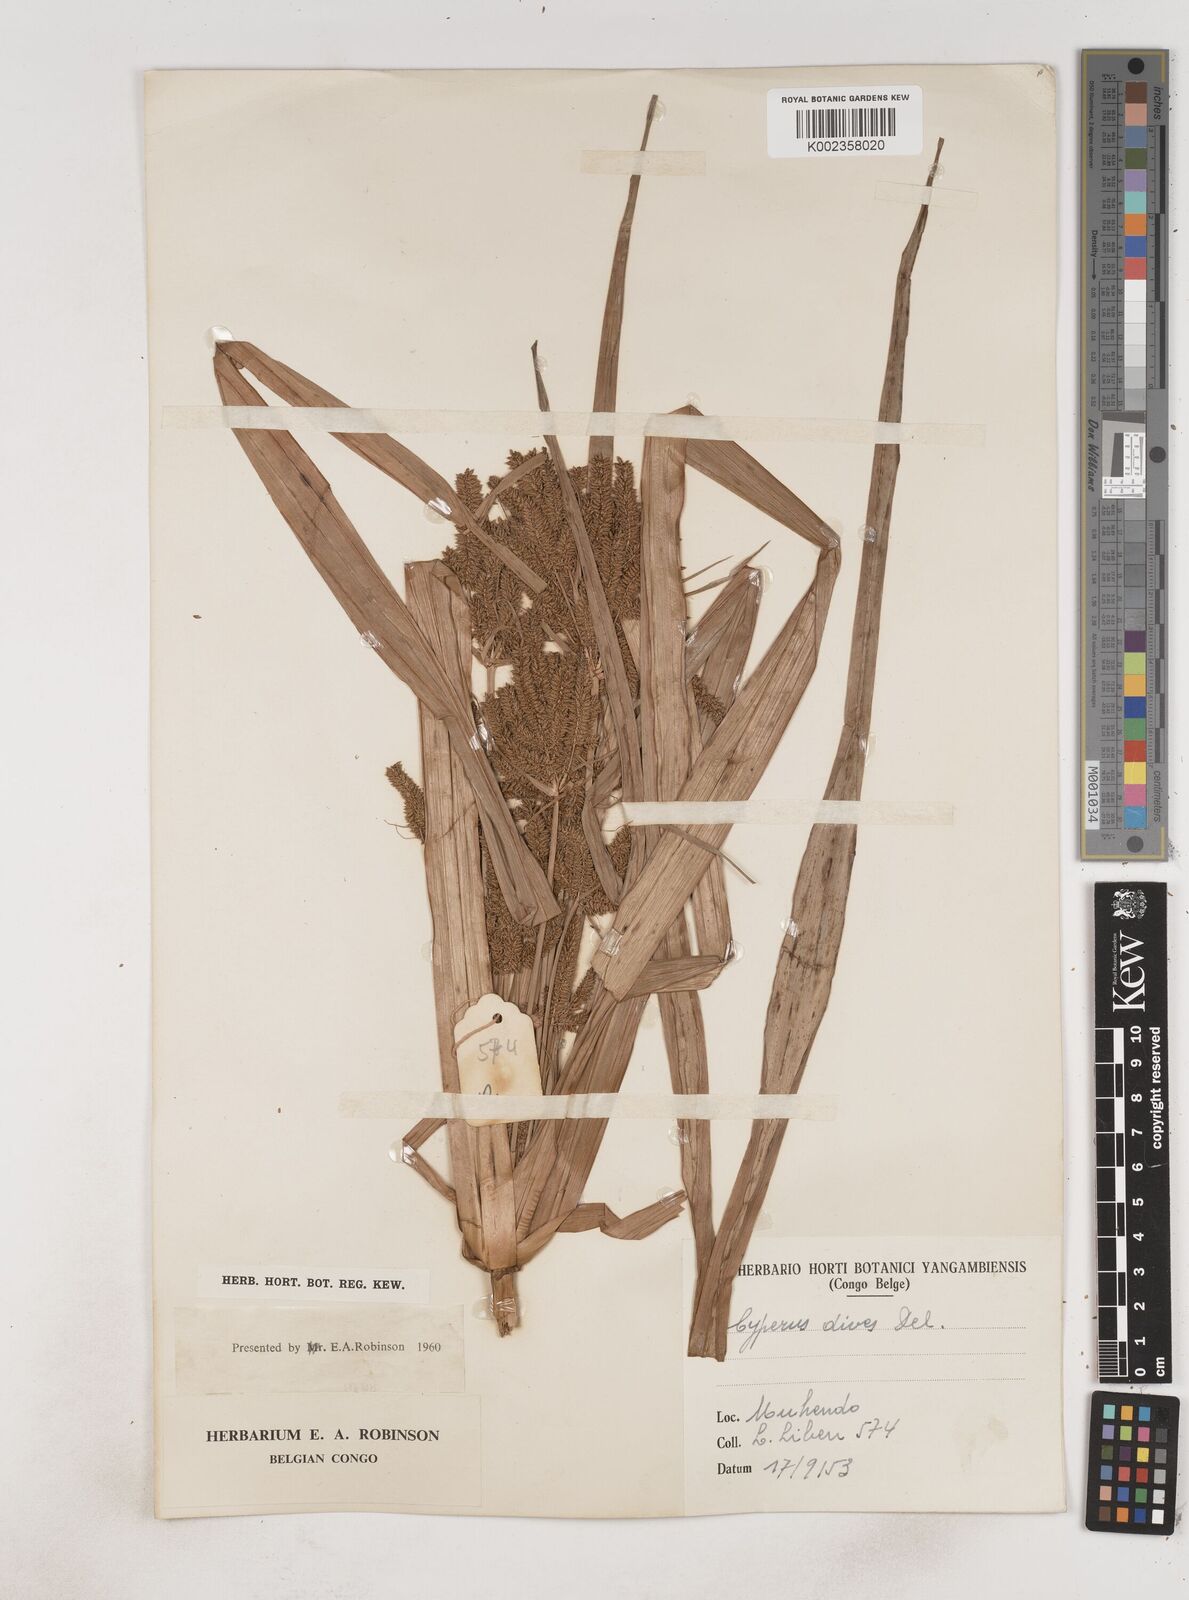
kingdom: Plantae
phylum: Tracheophyta
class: Liliopsida
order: Poales
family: Cyperaceae
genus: Cyperus
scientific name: Cyperus dives
